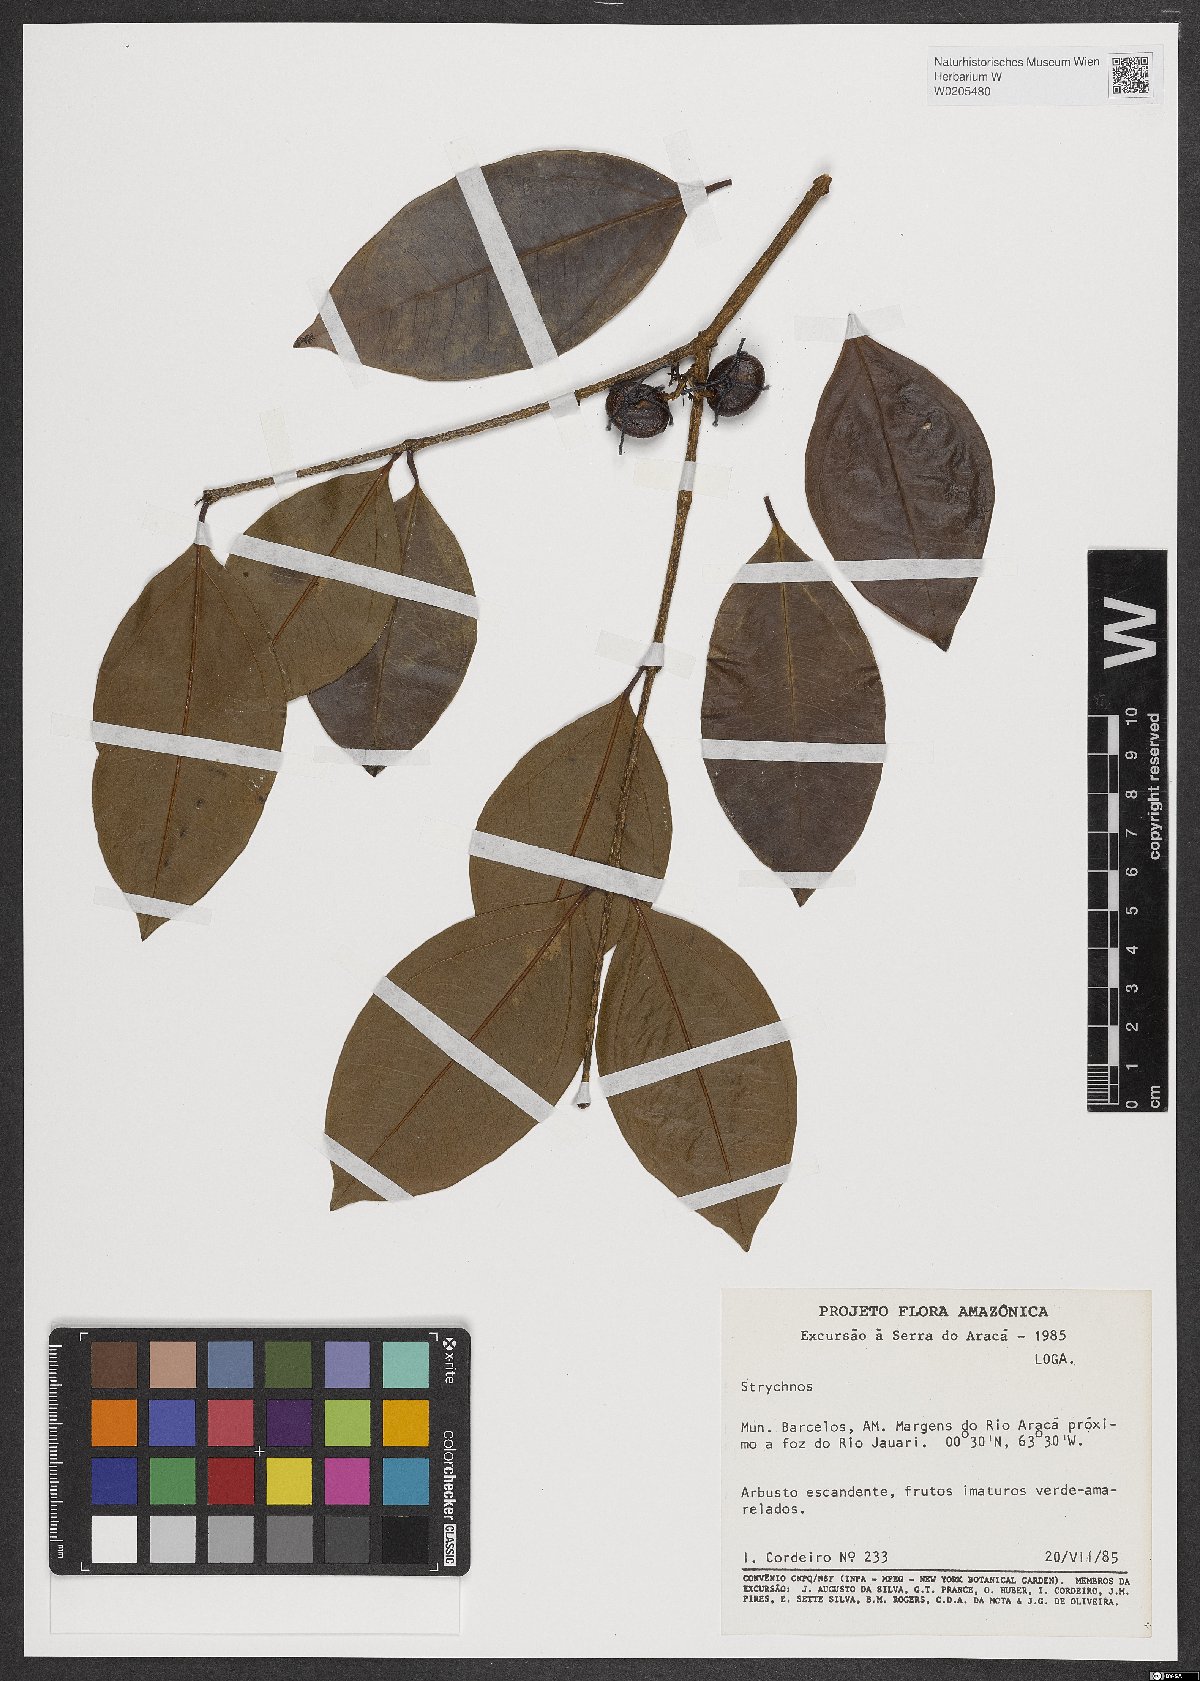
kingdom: Plantae
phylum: Tracheophyta
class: Magnoliopsida
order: Gentianales
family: Loganiaceae
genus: Strychnos
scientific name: Strychnos
